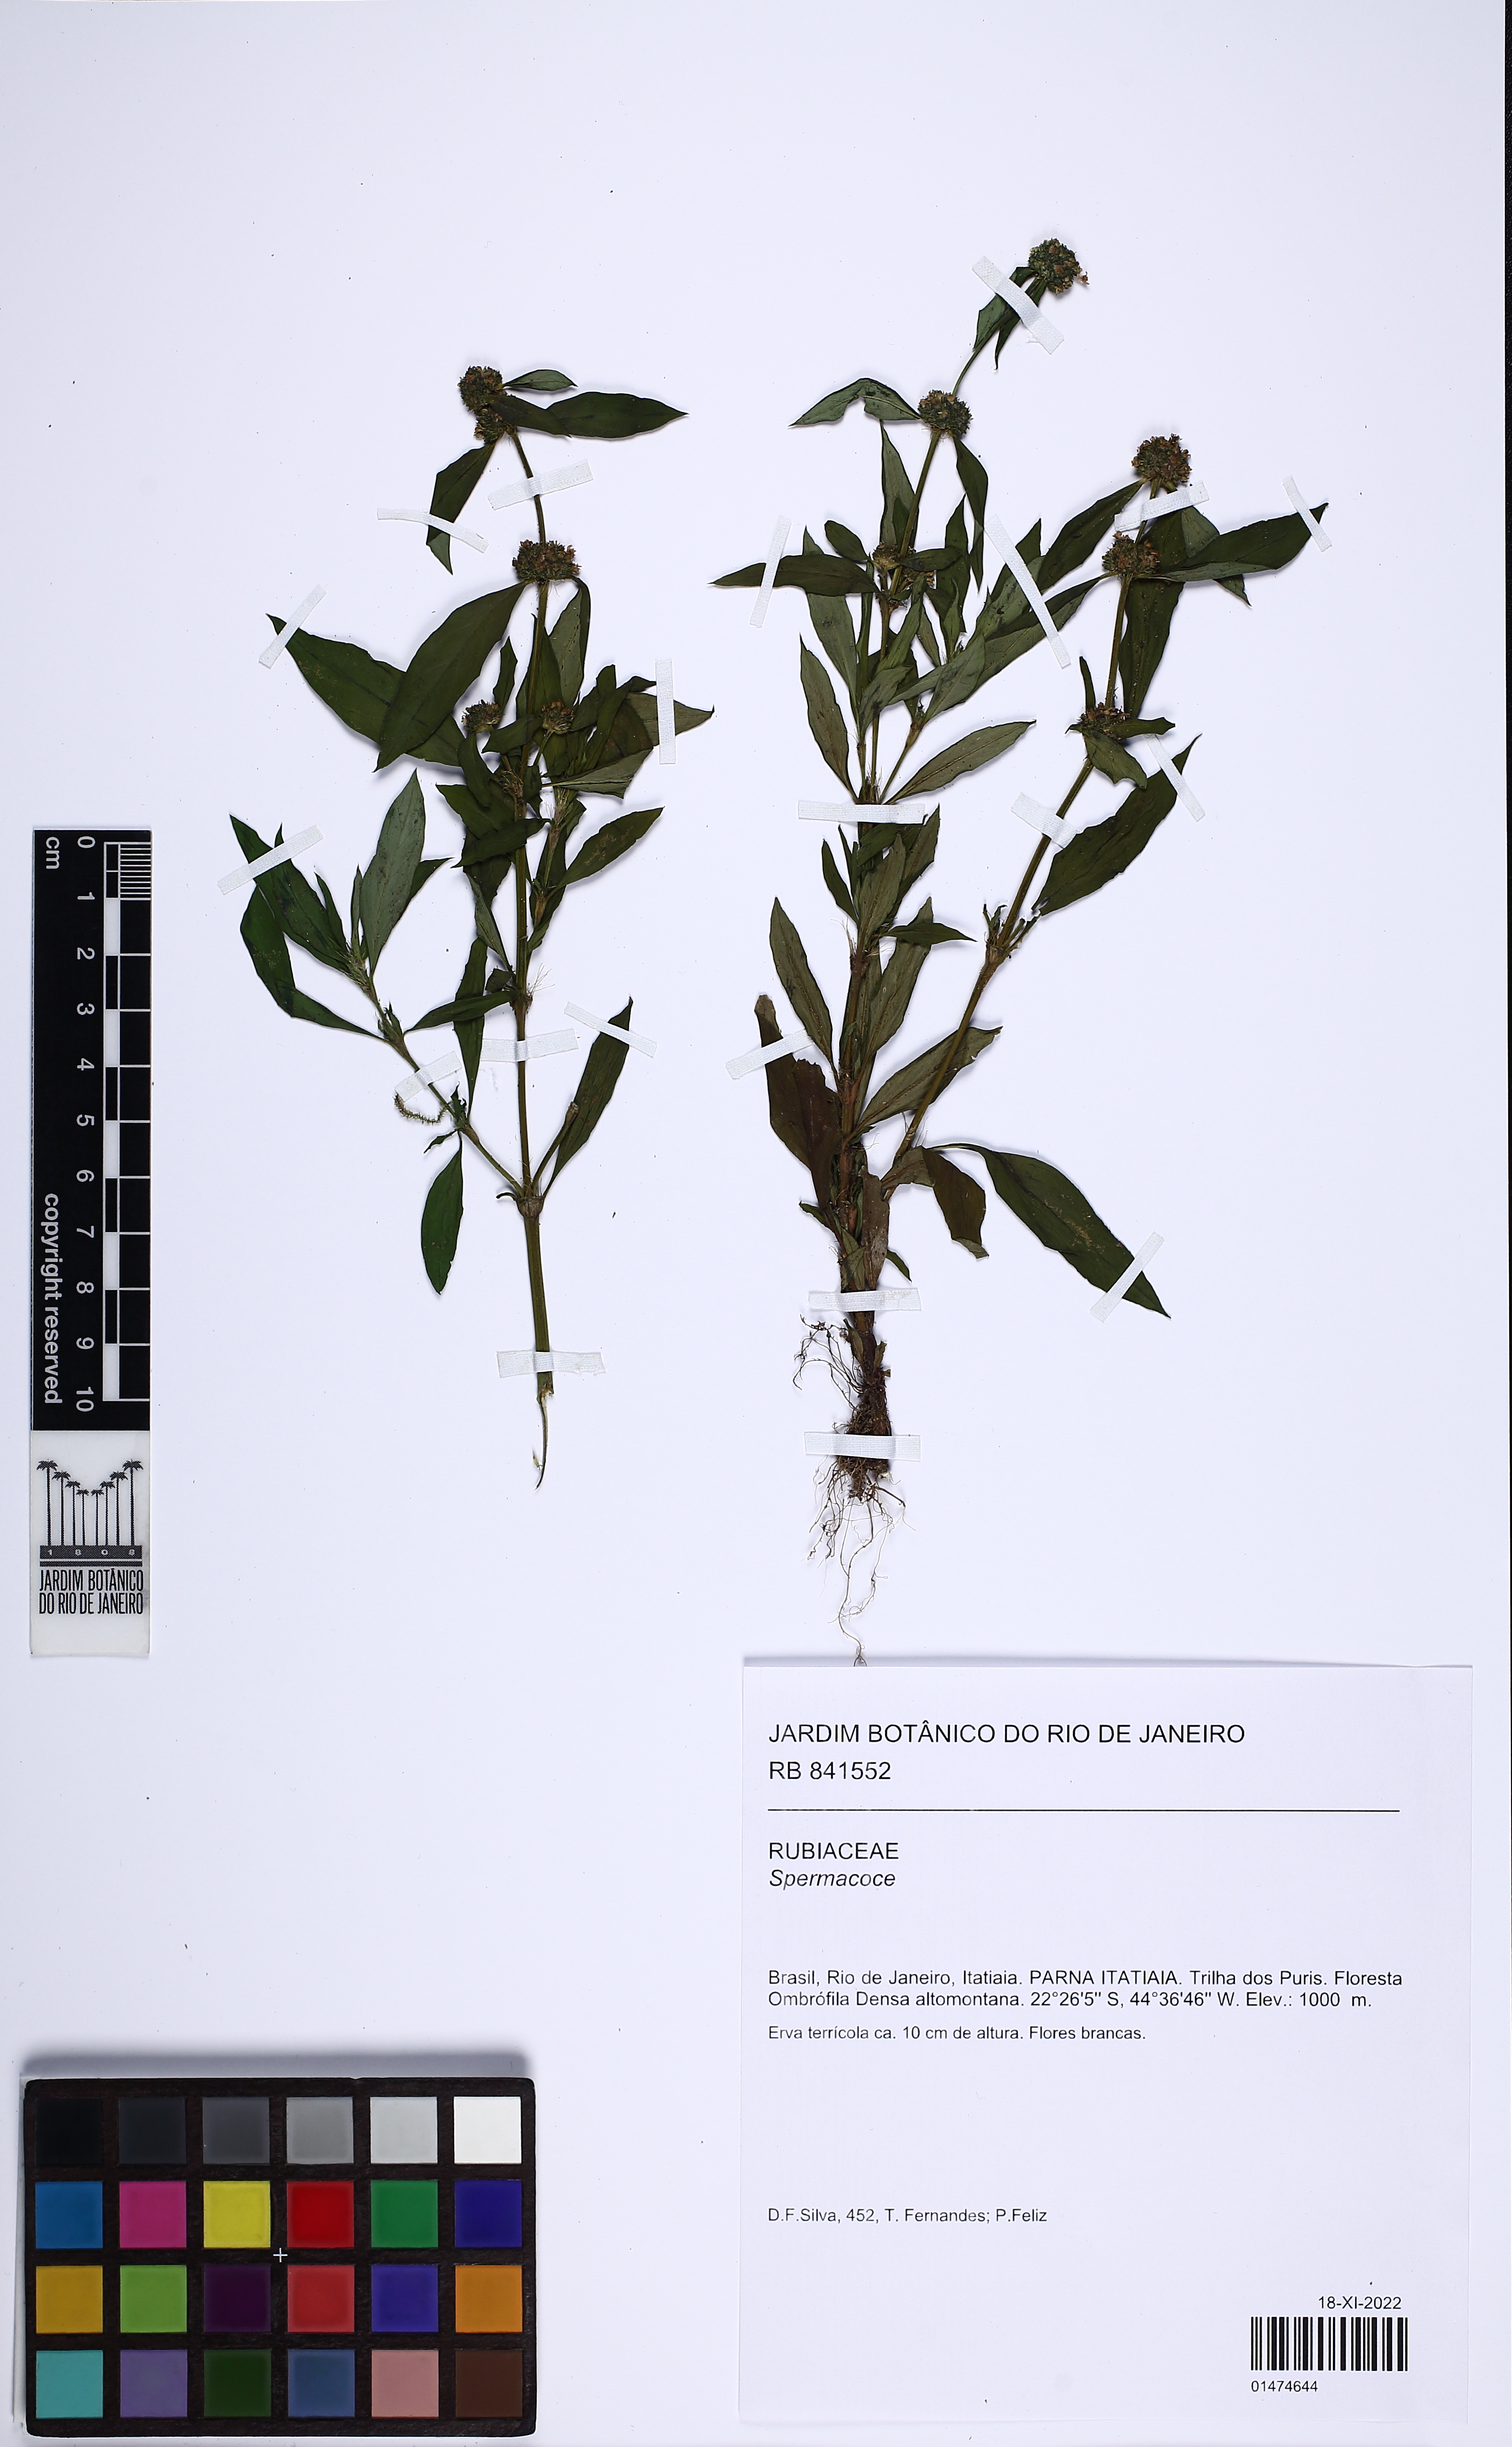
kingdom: Plantae
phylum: Tracheophyta
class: Magnoliopsida
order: Gentianales
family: Rubiaceae
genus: Spermacoce
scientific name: Spermacoce
